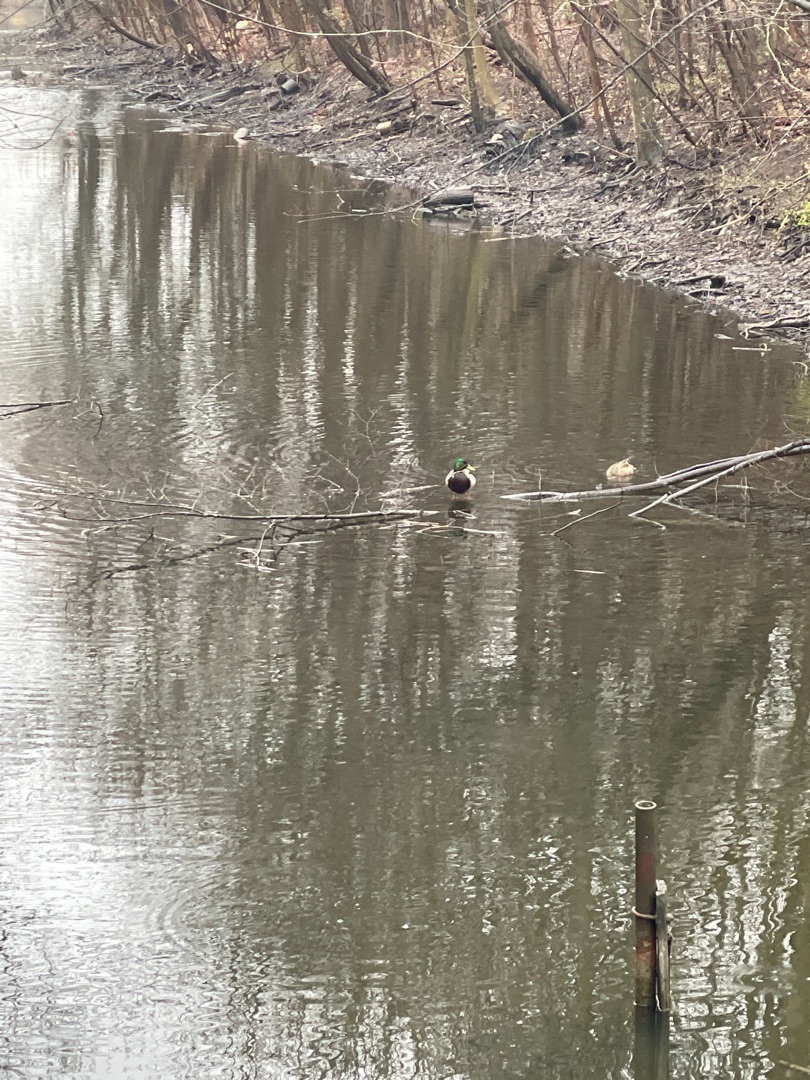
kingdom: Animalia
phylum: Chordata
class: Aves
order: Anseriformes
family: Anatidae
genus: Anas
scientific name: Anas platyrhynchos
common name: Gråand
